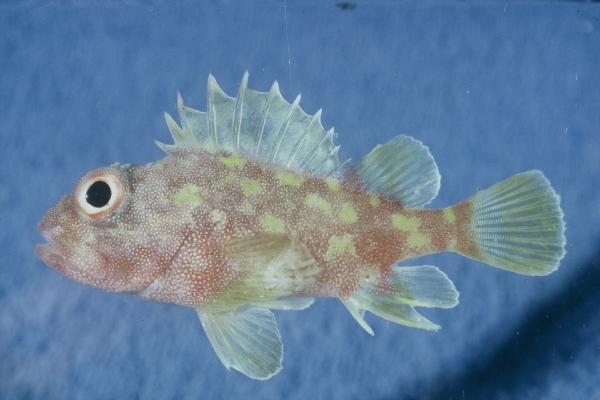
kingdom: Animalia
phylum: Chordata
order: Scorpaeniformes
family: Scorpaenidae
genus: Sebastapistes
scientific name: Sebastapistes cyanostigma
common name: Yellowspotted scorpionfish
